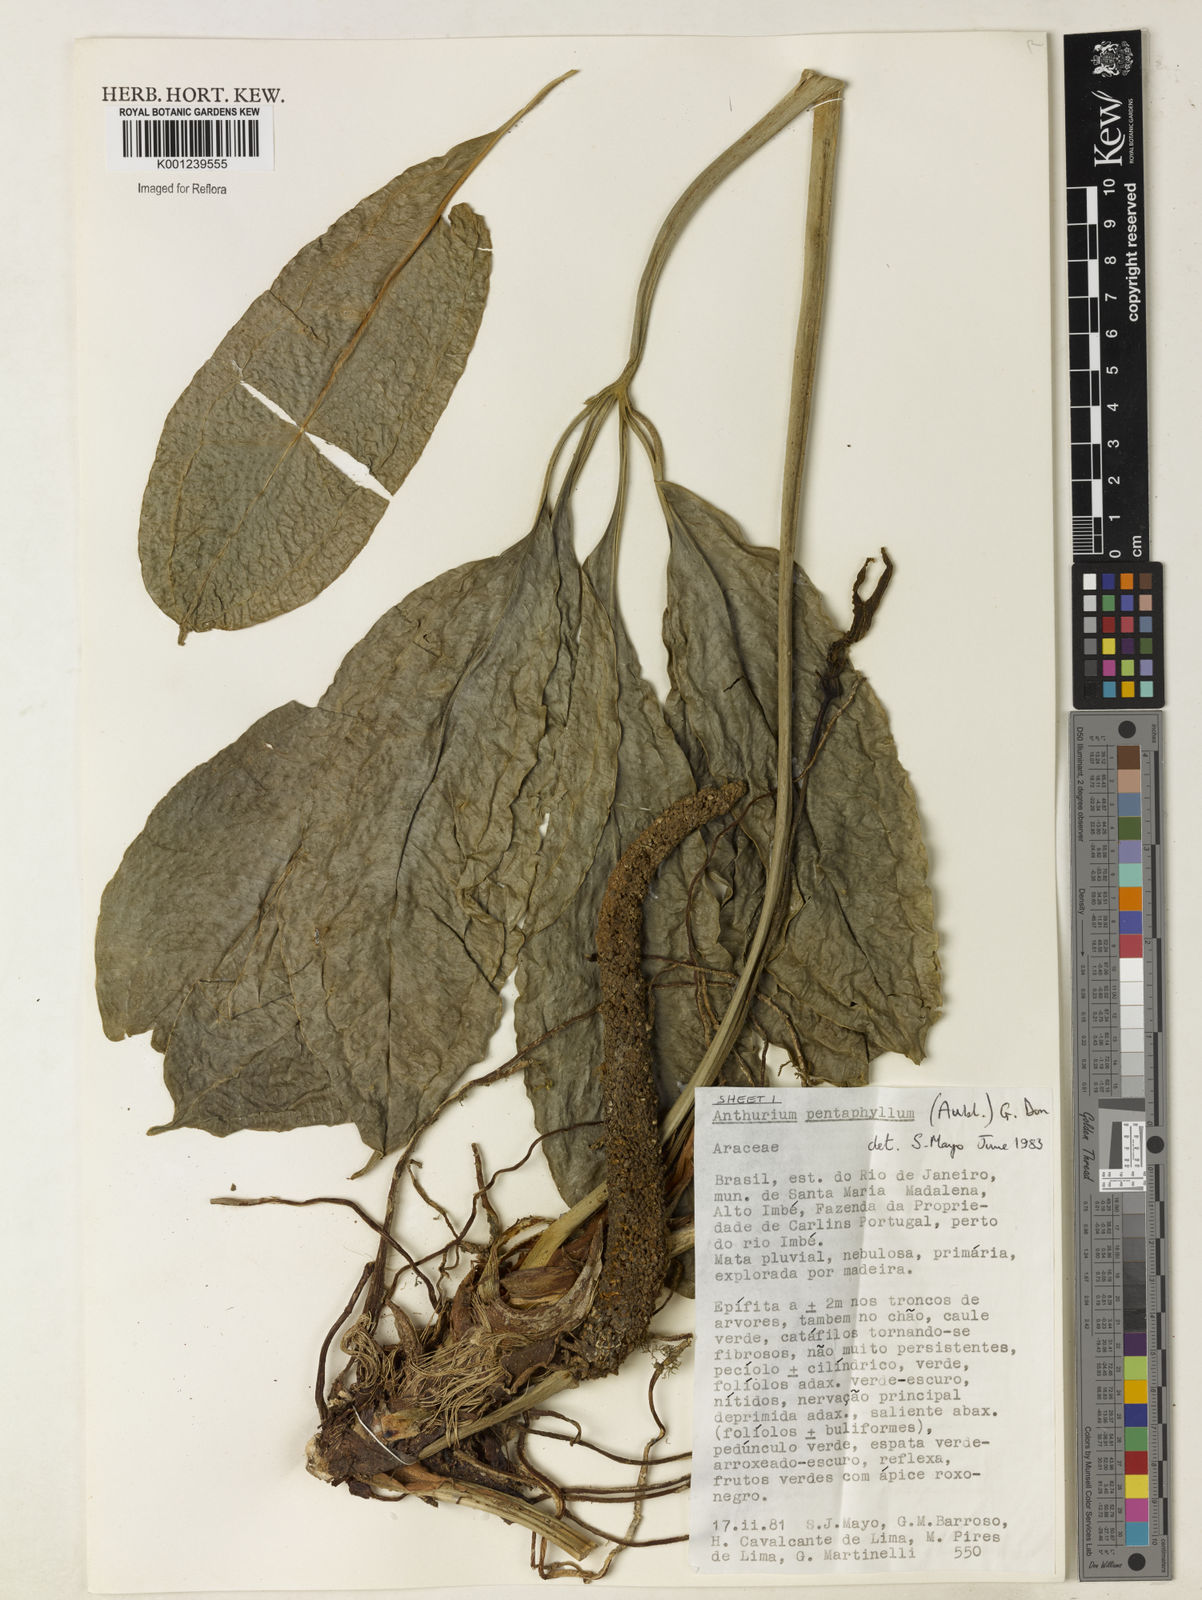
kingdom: Plantae
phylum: Tracheophyta
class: Liliopsida
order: Alismatales
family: Araceae
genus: Anthurium
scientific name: Anthurium pentaphyllum
